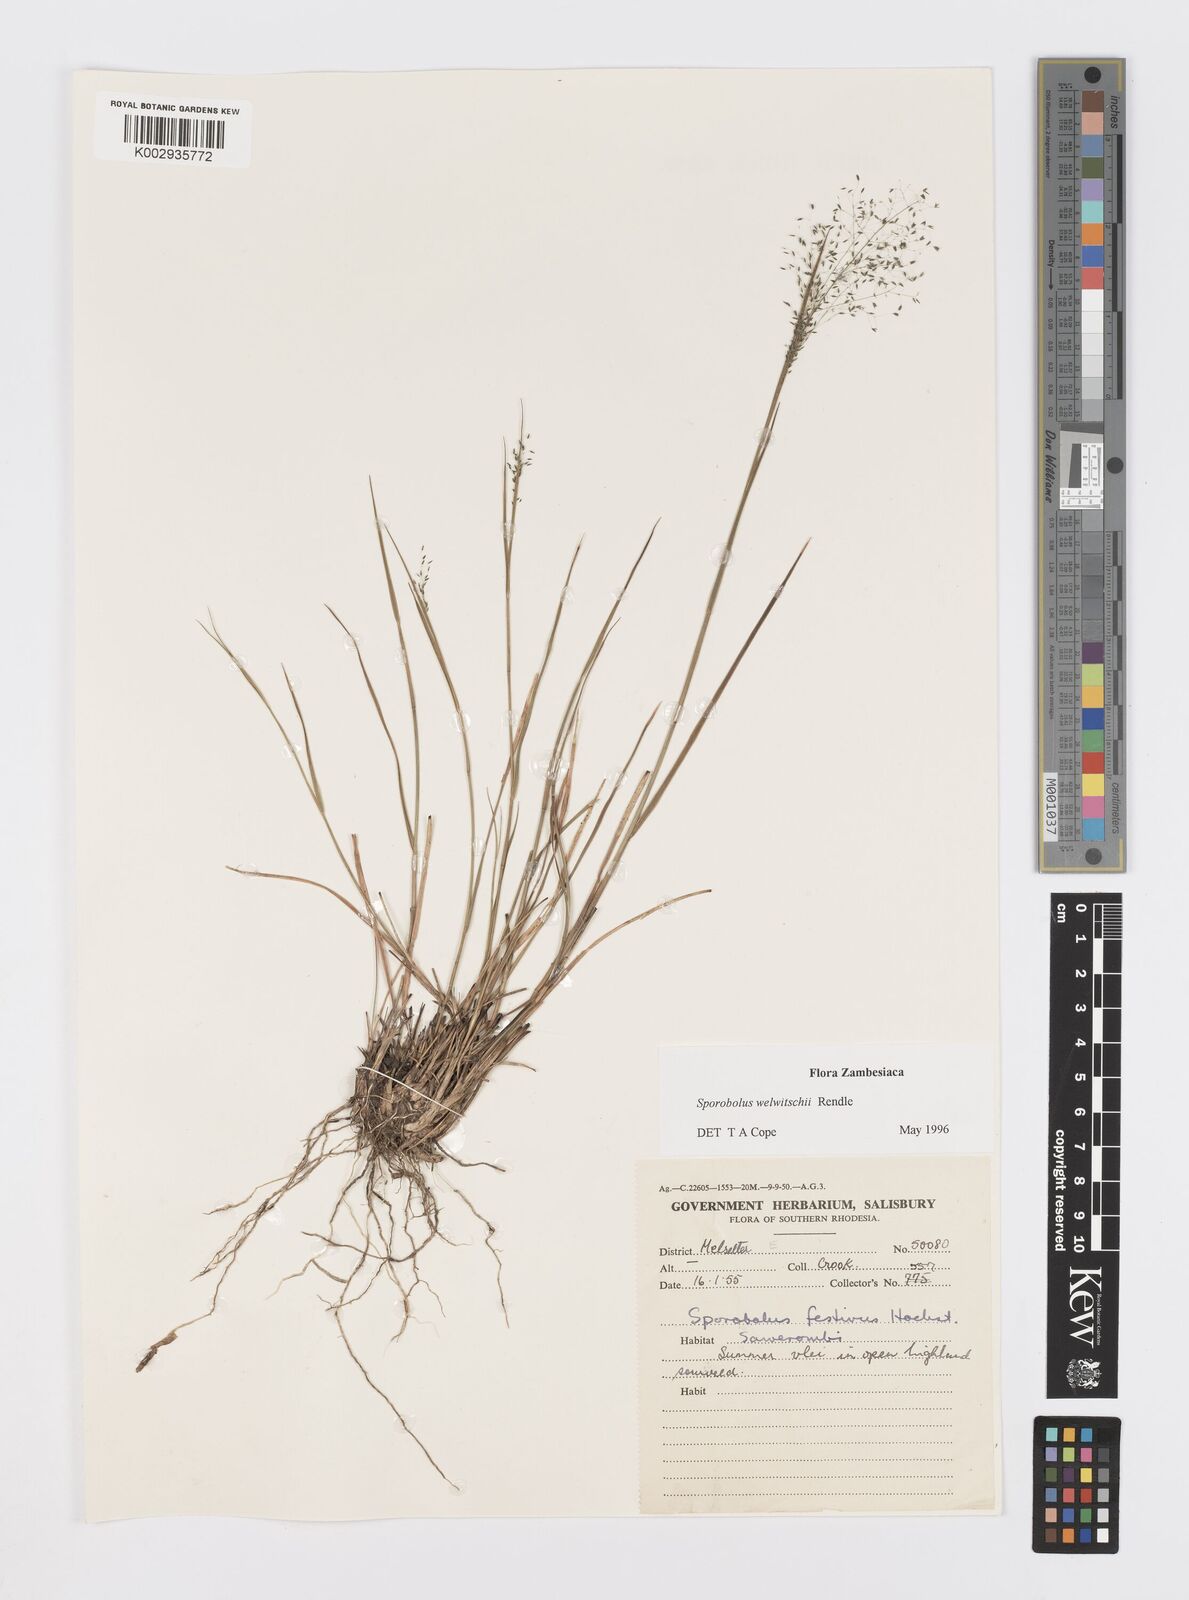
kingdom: Plantae
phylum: Tracheophyta
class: Liliopsida
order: Poales
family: Poaceae
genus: Sporobolus
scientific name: Sporobolus welwitschii
